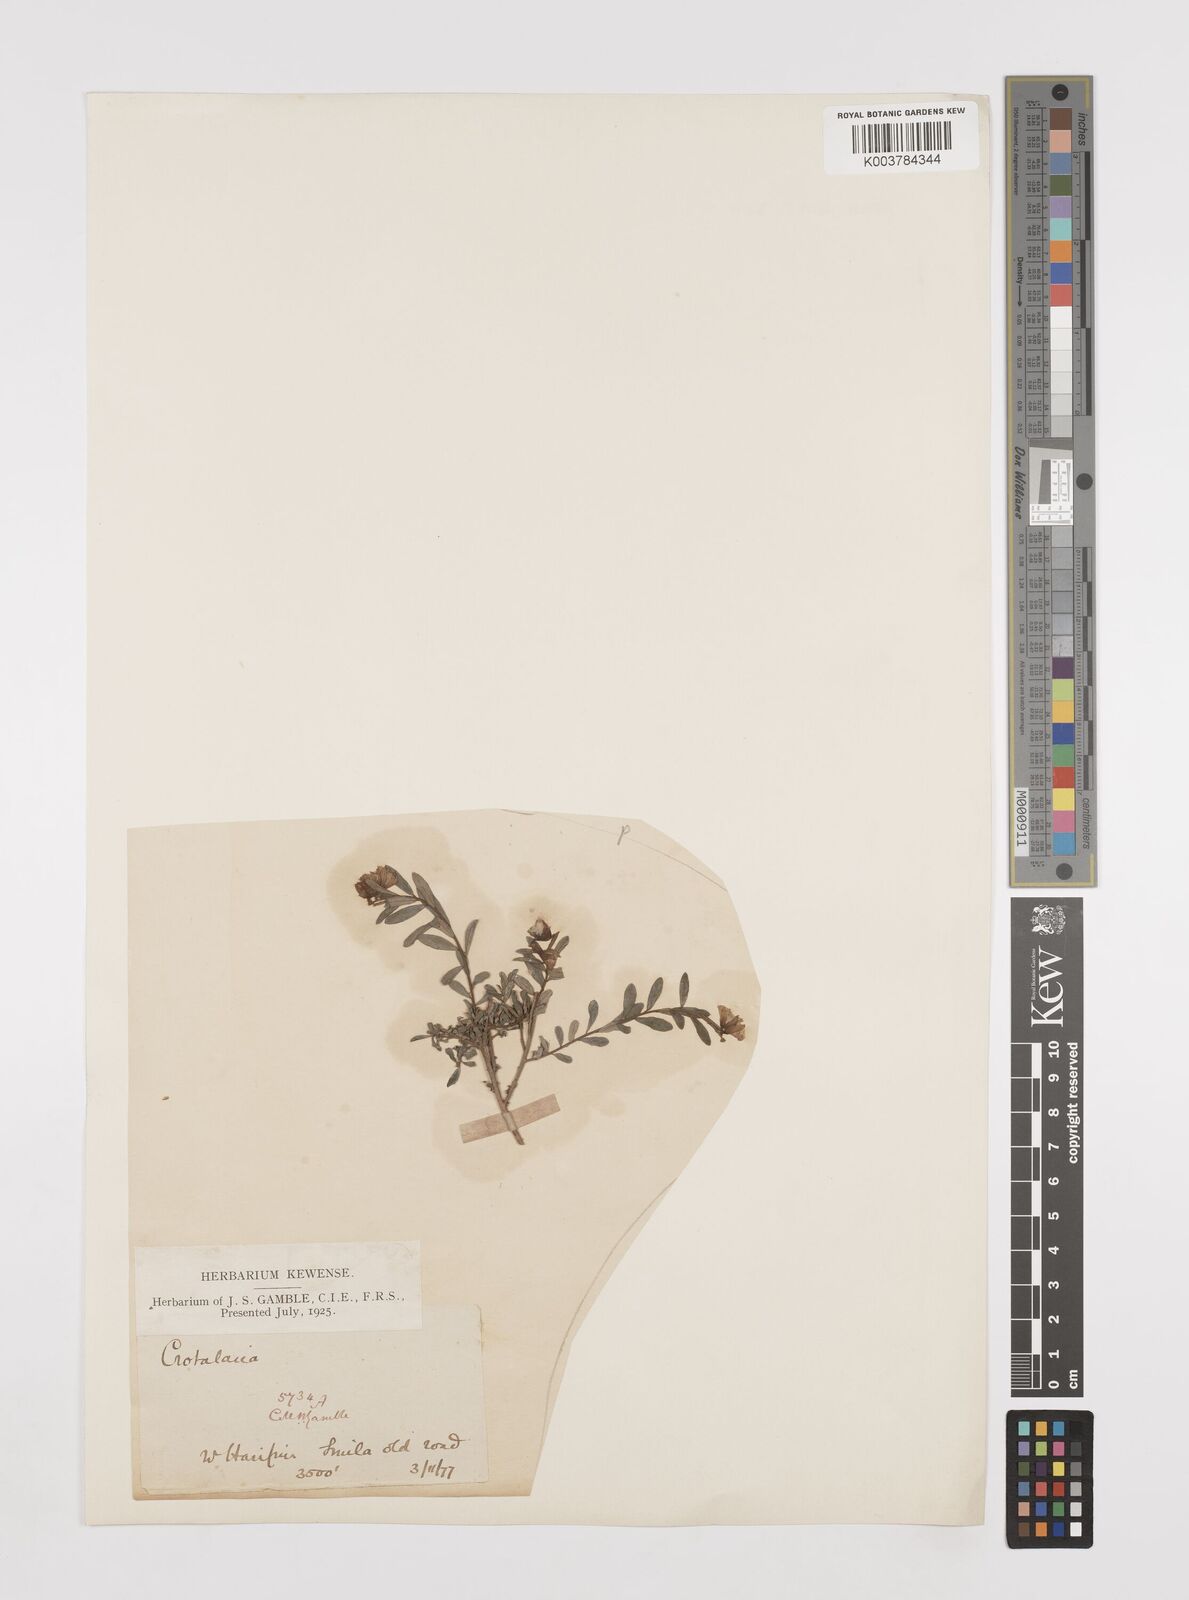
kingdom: Plantae
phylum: Tracheophyta
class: Magnoliopsida
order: Fabales
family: Fabaceae
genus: Crotalaria
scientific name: Crotalaria linifolia
